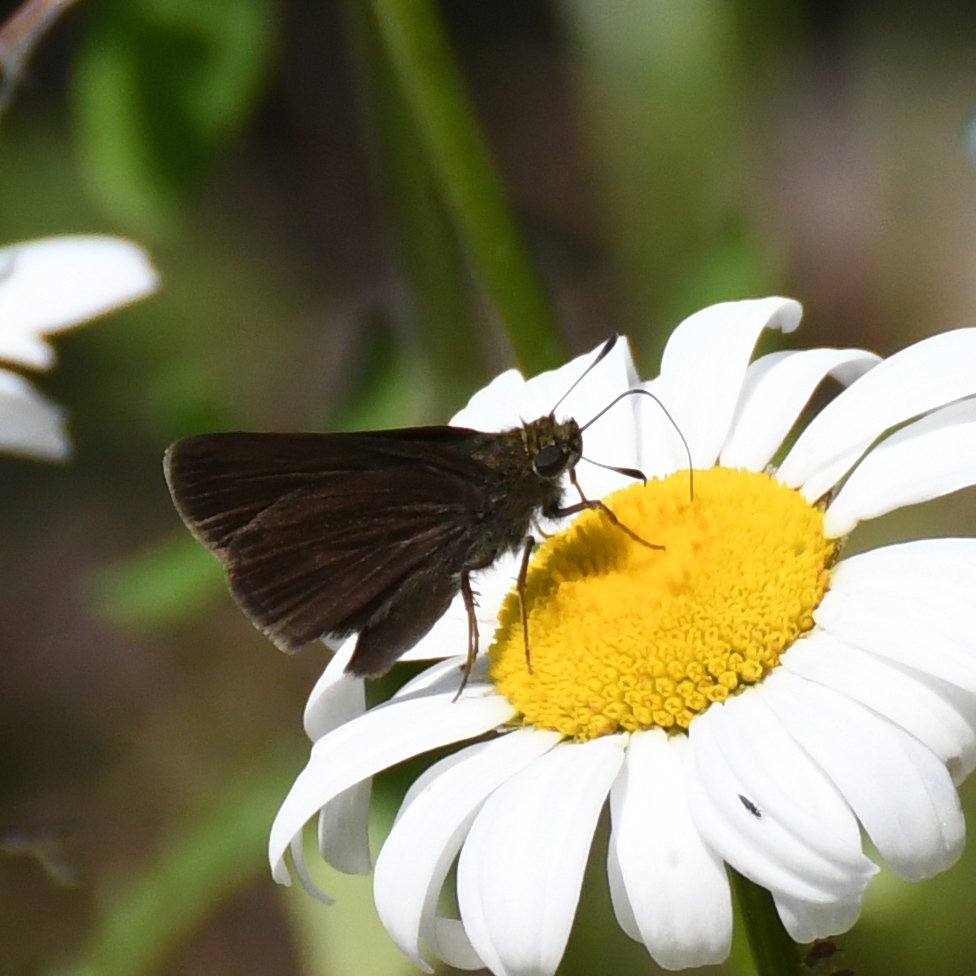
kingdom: Animalia
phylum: Arthropoda
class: Insecta
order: Lepidoptera
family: Hesperiidae
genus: Euphyes
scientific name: Euphyes vestris
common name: Dun Skipper
